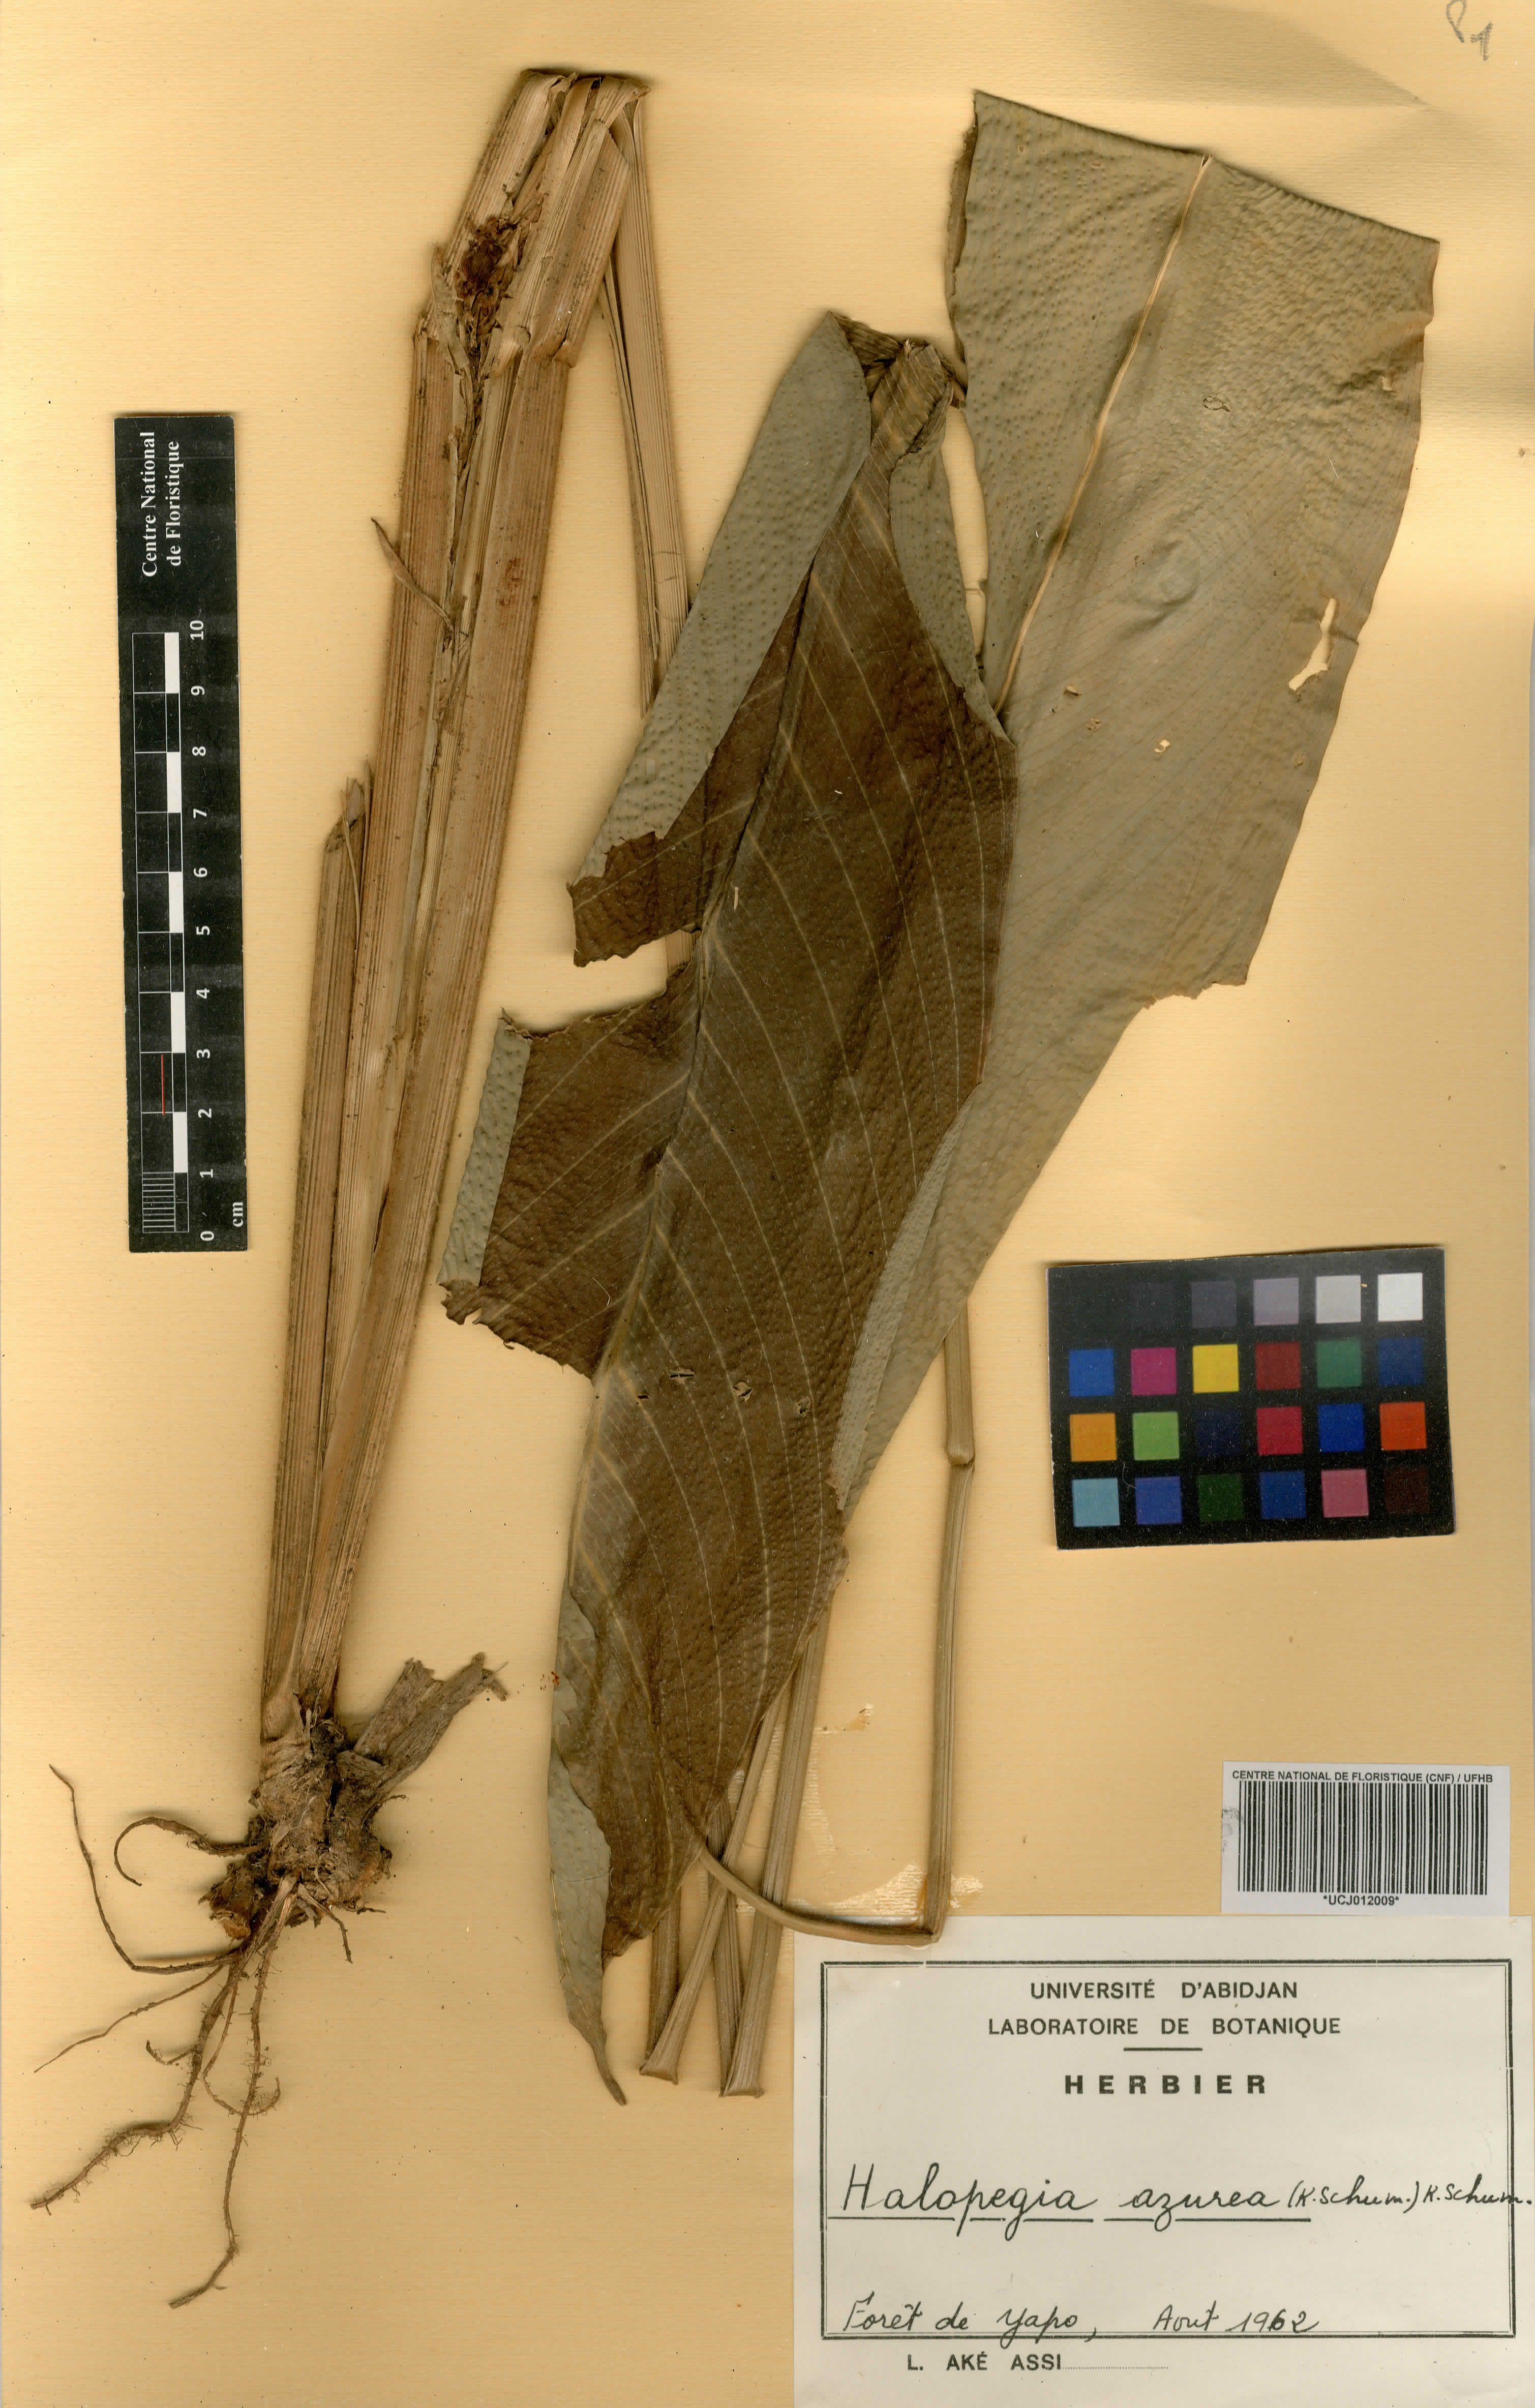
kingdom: Plantae
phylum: Tracheophyta
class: Liliopsida
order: Zingiberales
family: Marantaceae
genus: Halopegia
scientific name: Halopegia azurea
